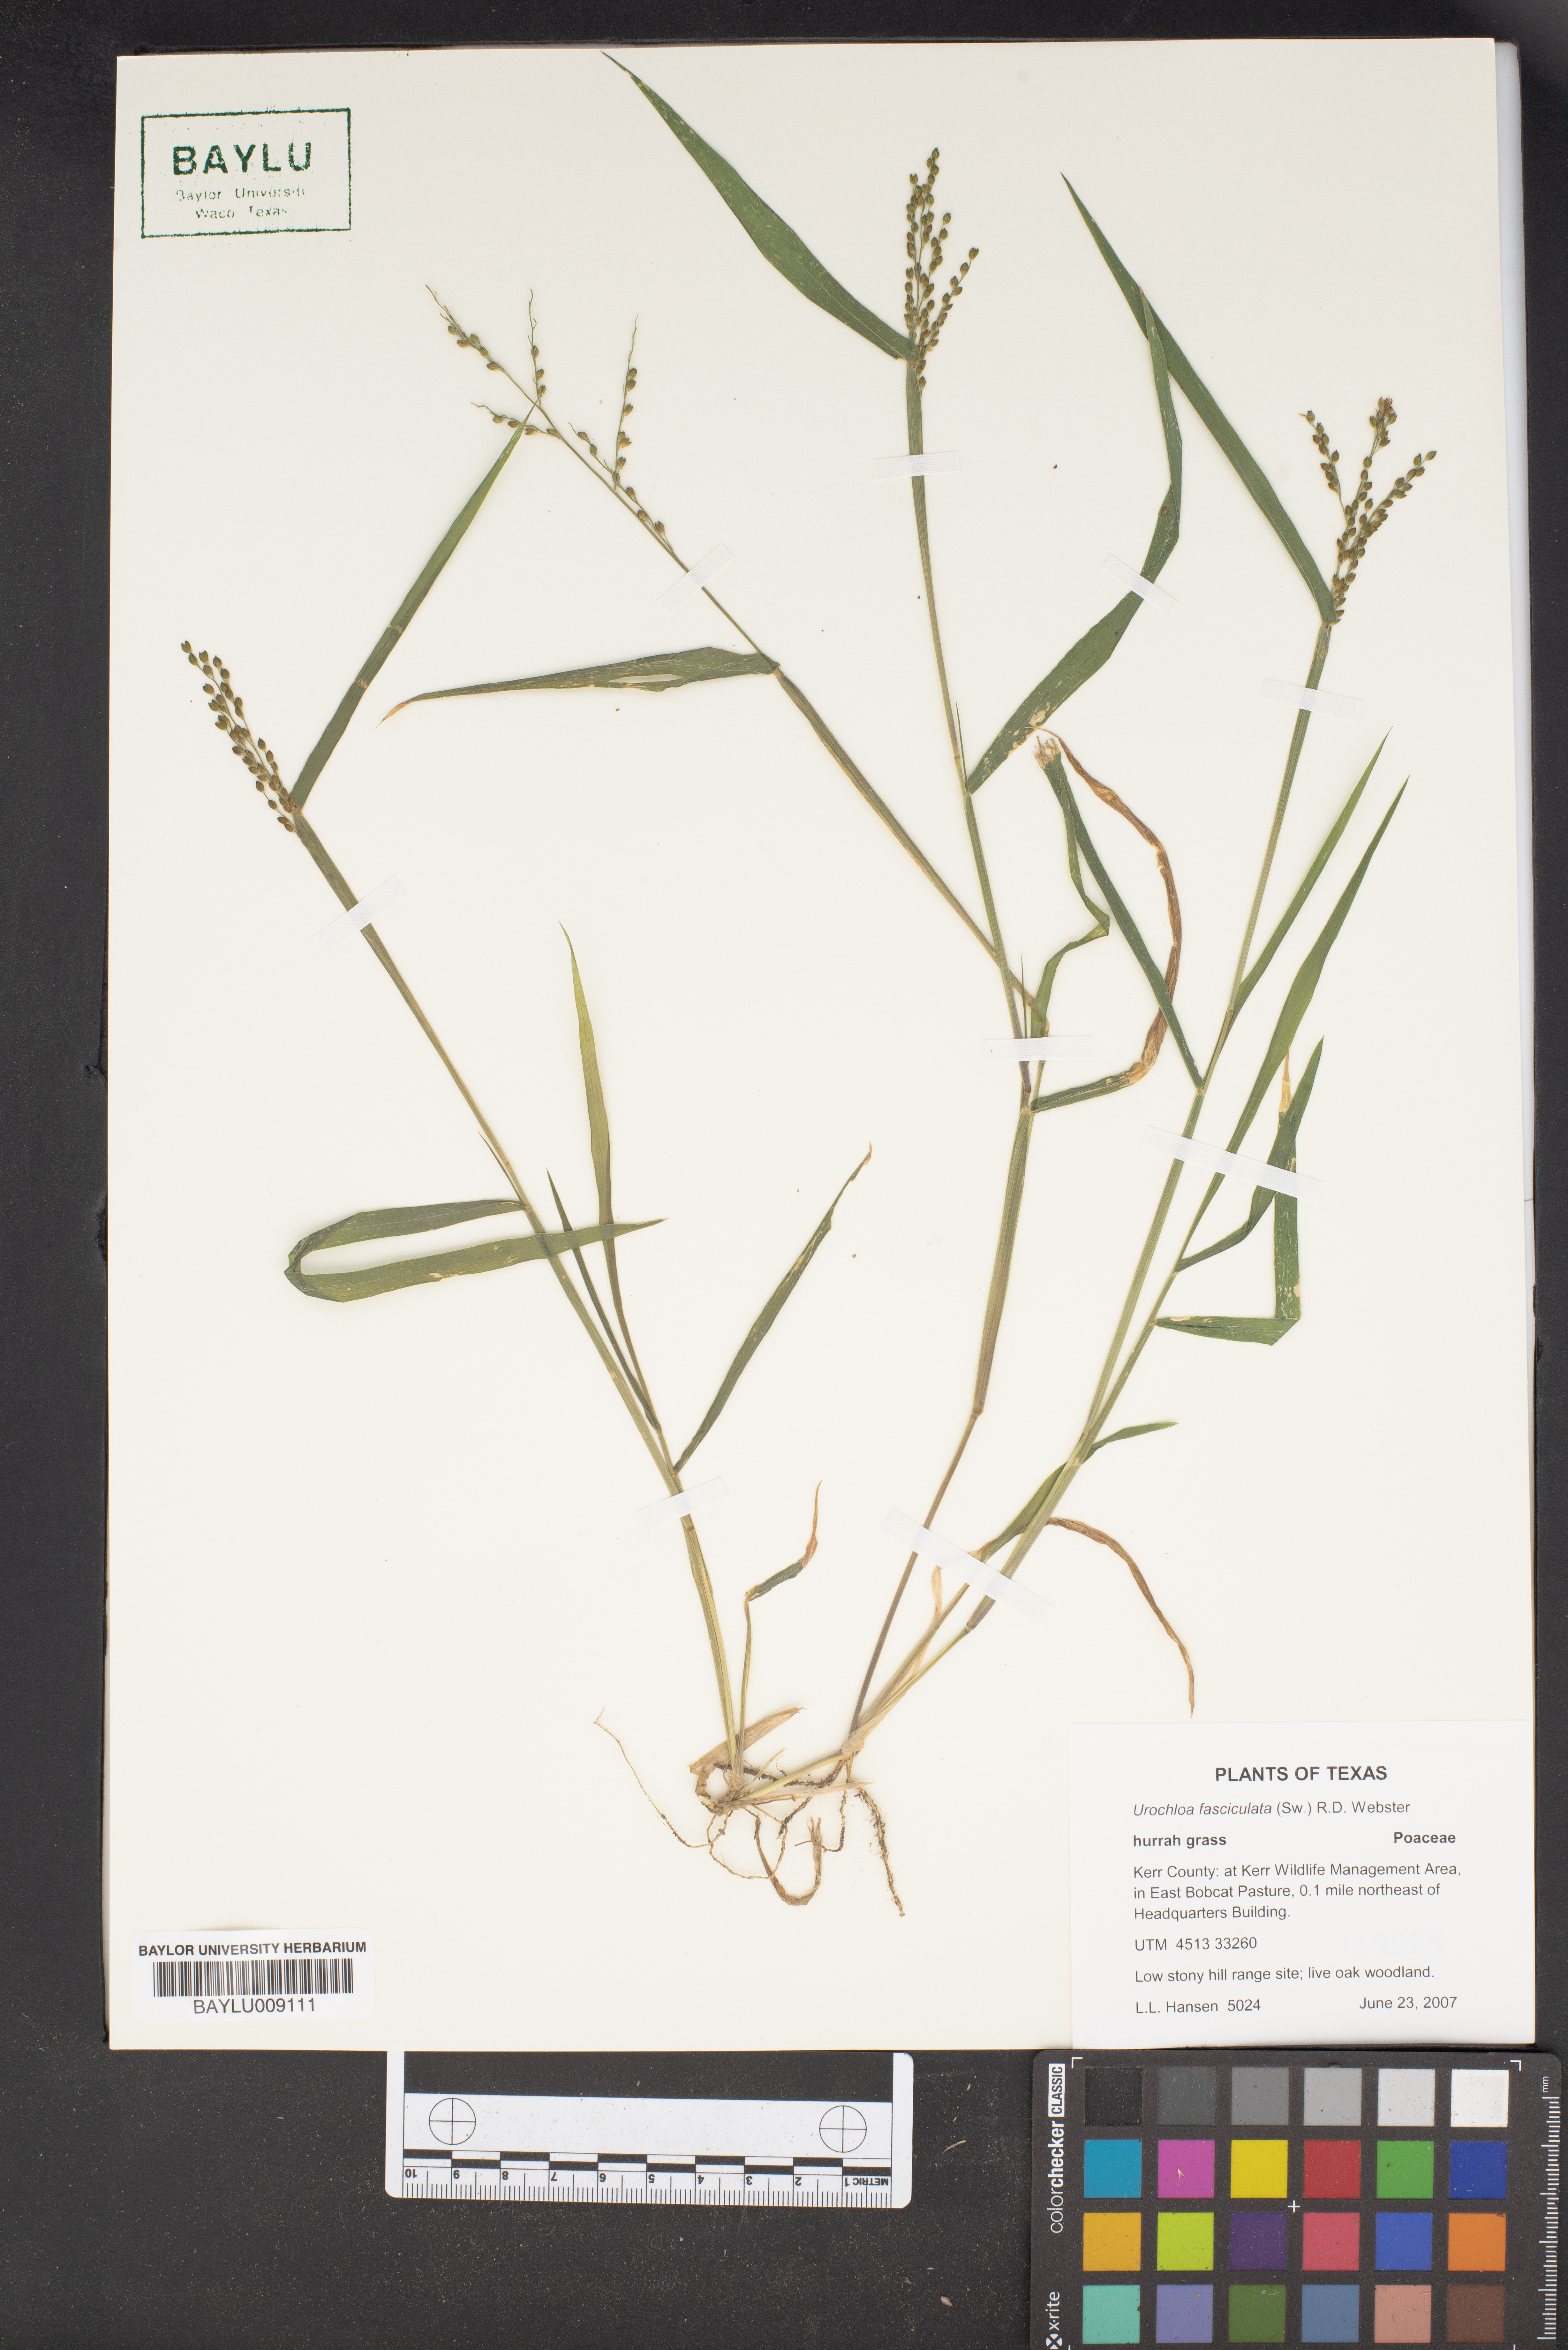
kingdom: Plantae
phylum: Tracheophyta
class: Liliopsida
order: Poales
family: Poaceae
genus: Urochloa
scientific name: Urochloa fusca
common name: Browntop signal grass
